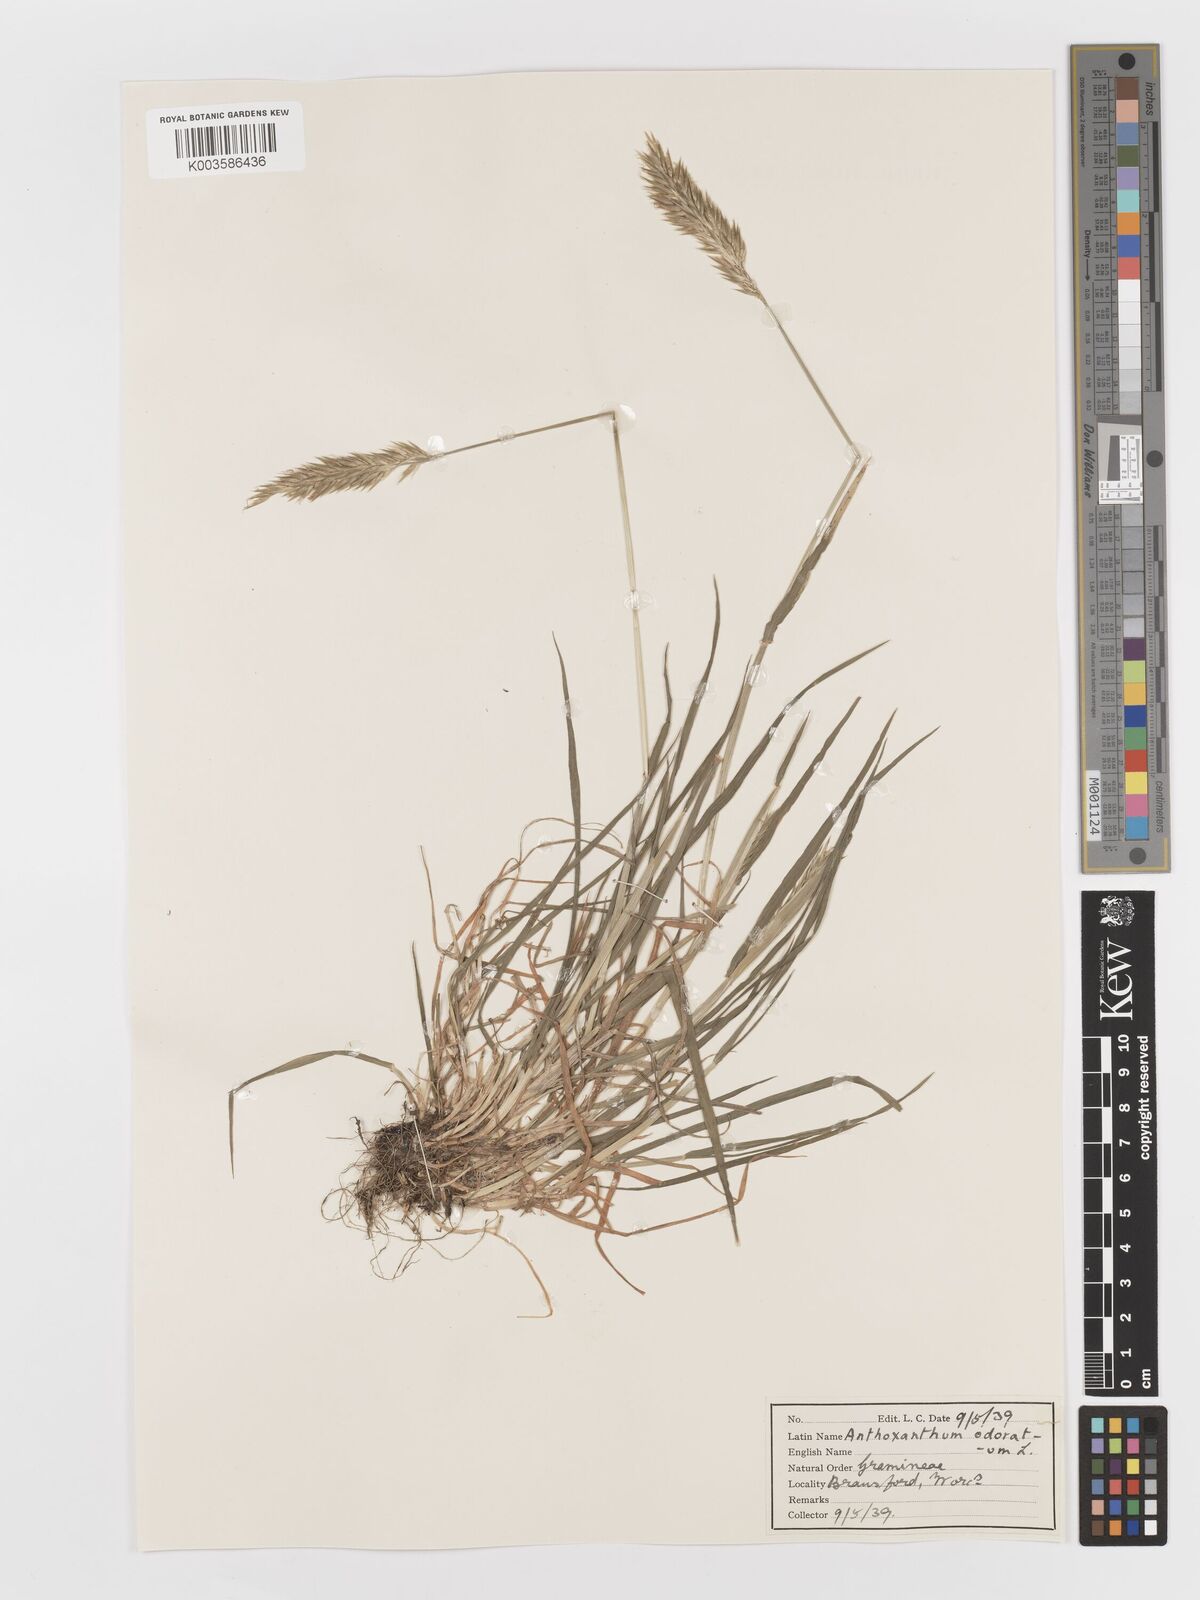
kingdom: Plantae
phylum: Tracheophyta
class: Liliopsida
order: Poales
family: Poaceae
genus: Anthoxanthum
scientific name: Anthoxanthum odoratum
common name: Sweet vernalgrass
